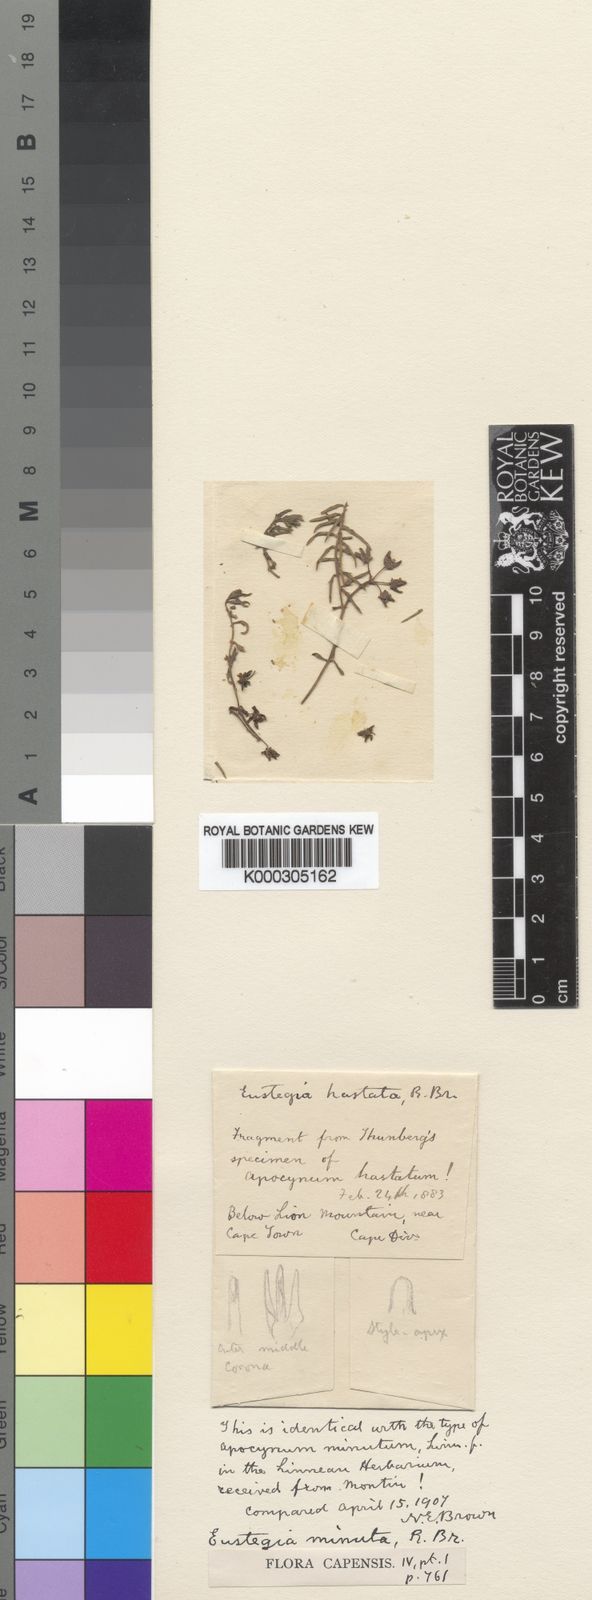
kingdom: Plantae
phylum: Tracheophyta
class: Magnoliopsida
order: Gentianales
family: Apocynaceae
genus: Eustegia
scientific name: Eustegia minuta
